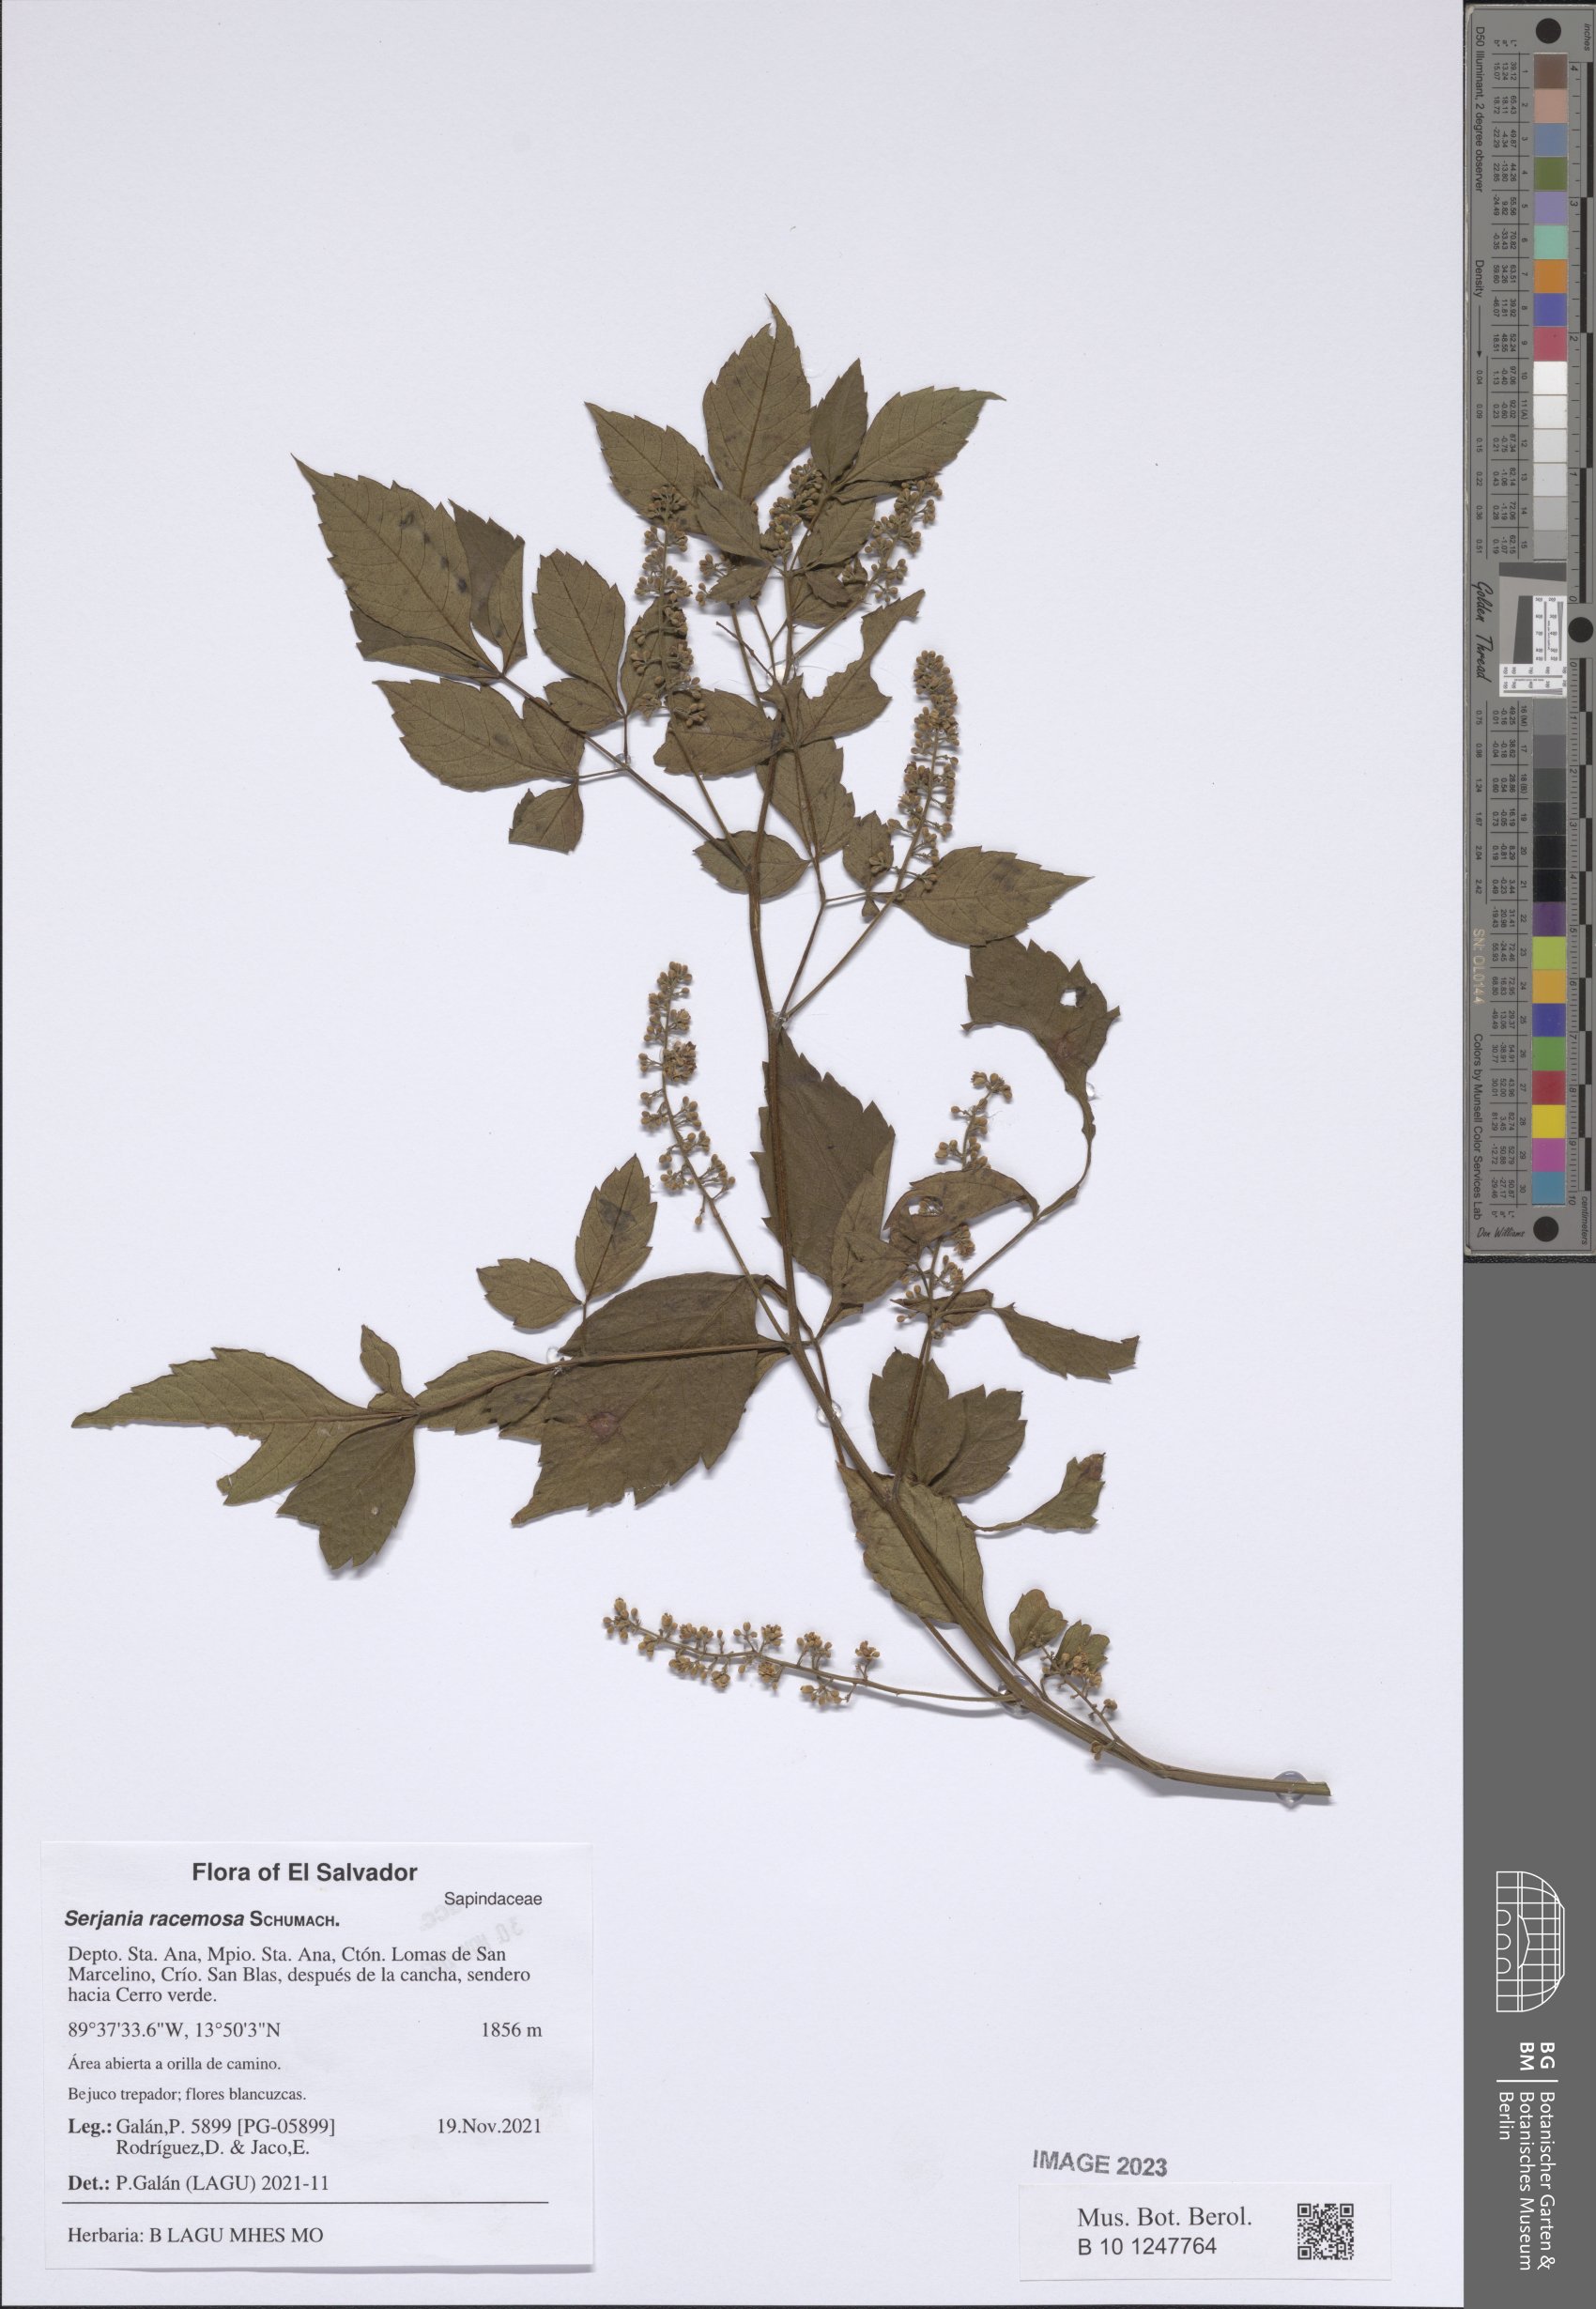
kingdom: Plantae
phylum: Tracheophyta
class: Magnoliopsida
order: Sapindales
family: Sapindaceae
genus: Serjania
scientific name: Serjania racemosa
